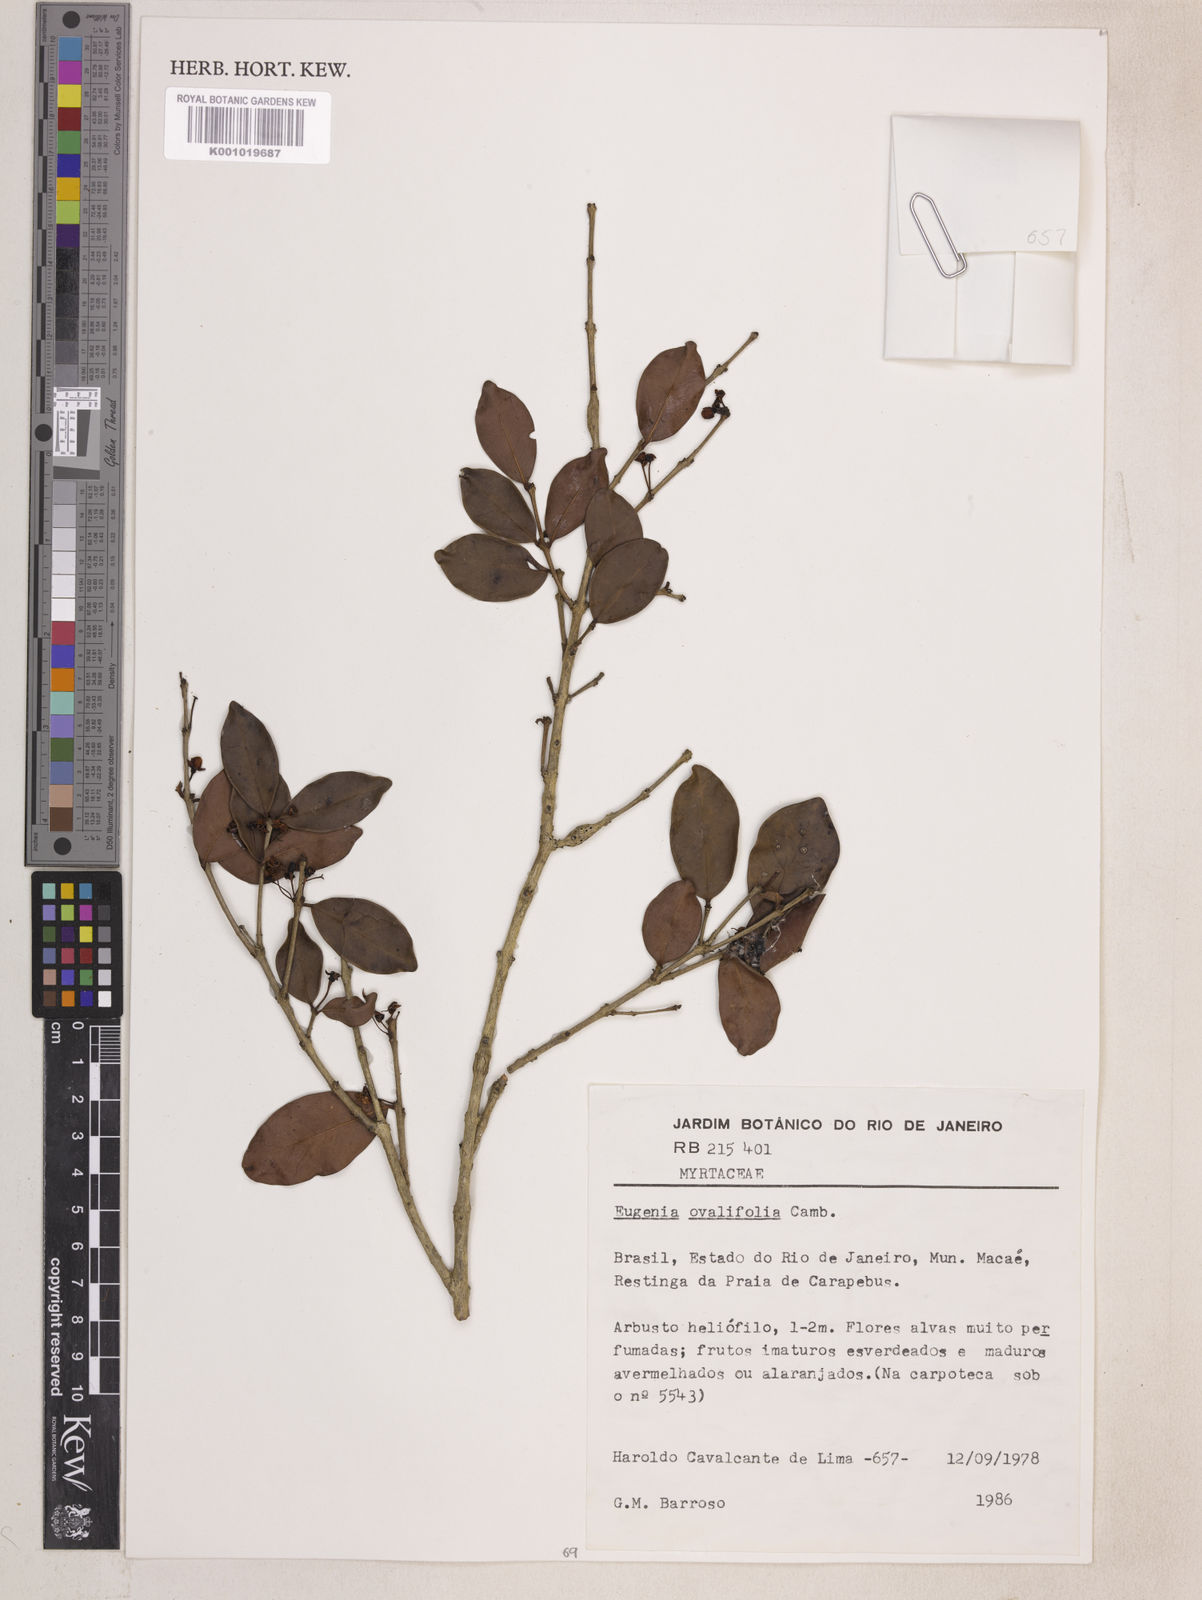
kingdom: Plantae
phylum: Tracheophyta
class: Magnoliopsida
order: Myrtales
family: Myrtaceae
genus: Eugenia
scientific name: Eugenia punicifolia
